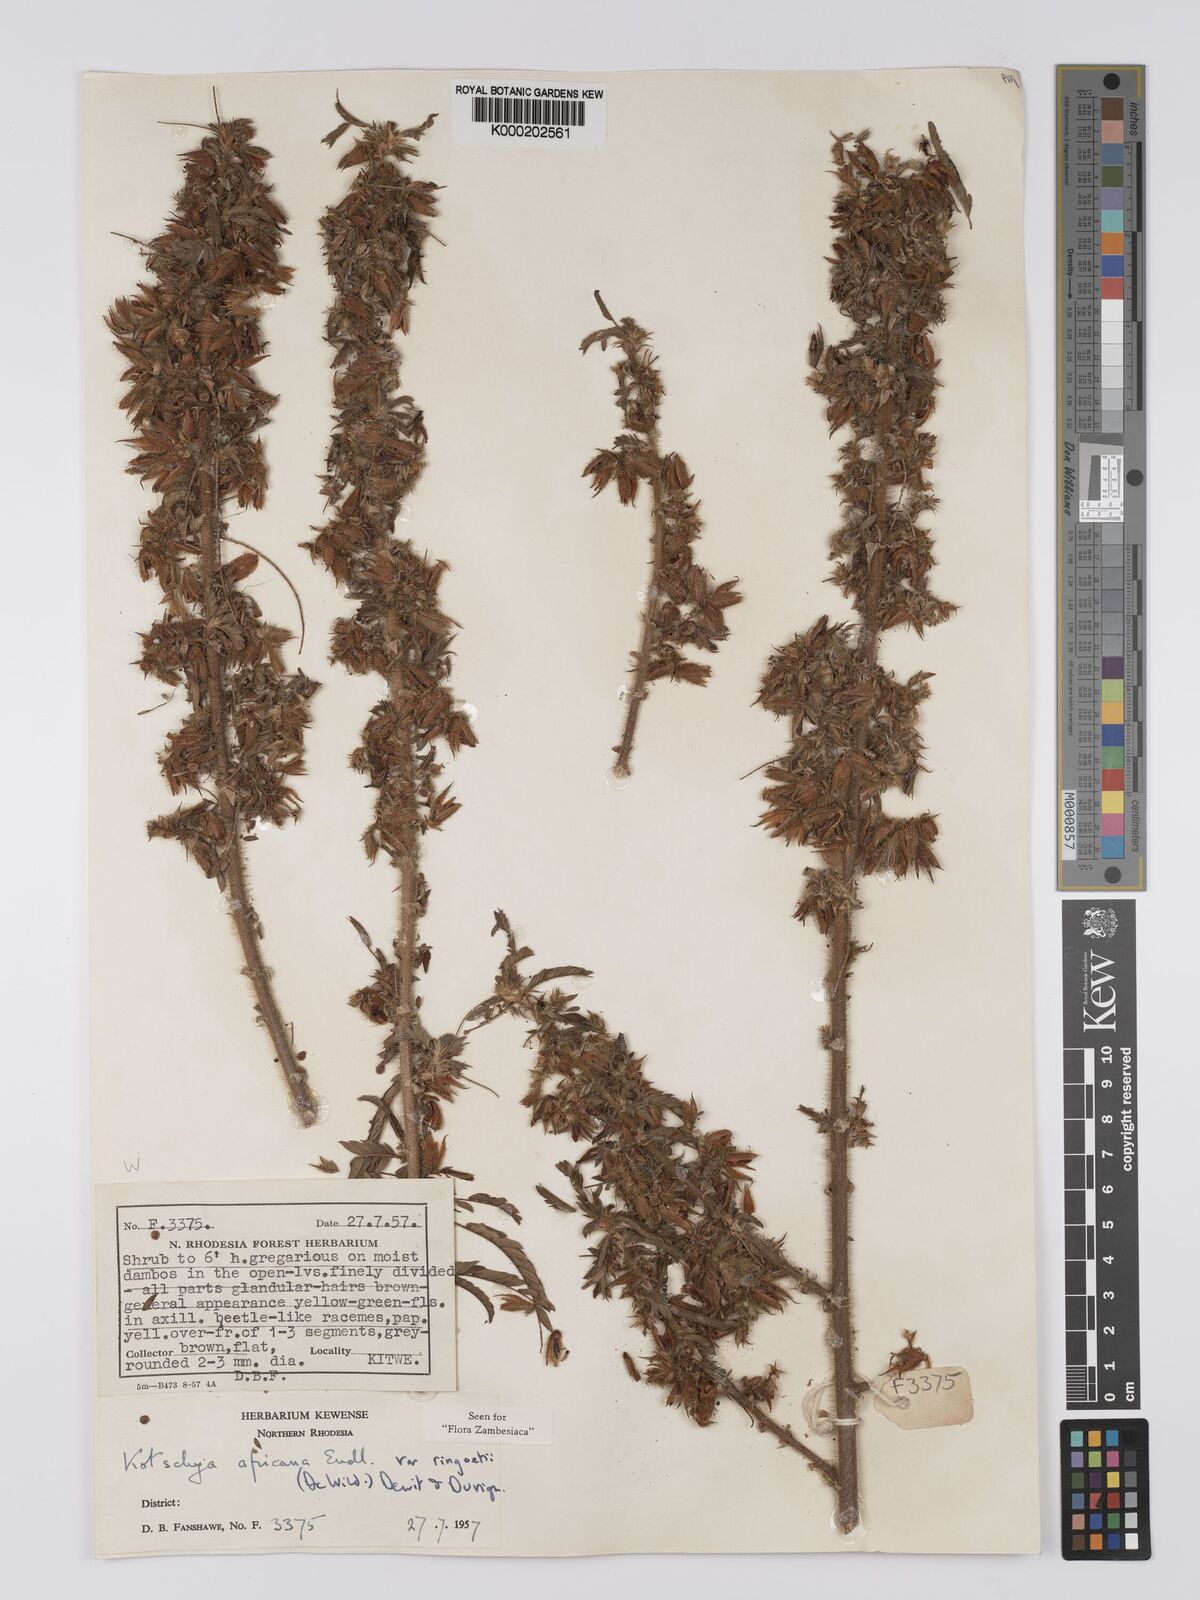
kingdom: Plantae
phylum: Tracheophyta
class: Magnoliopsida
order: Fabales
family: Fabaceae
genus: Kotschya
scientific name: Kotschya africana
